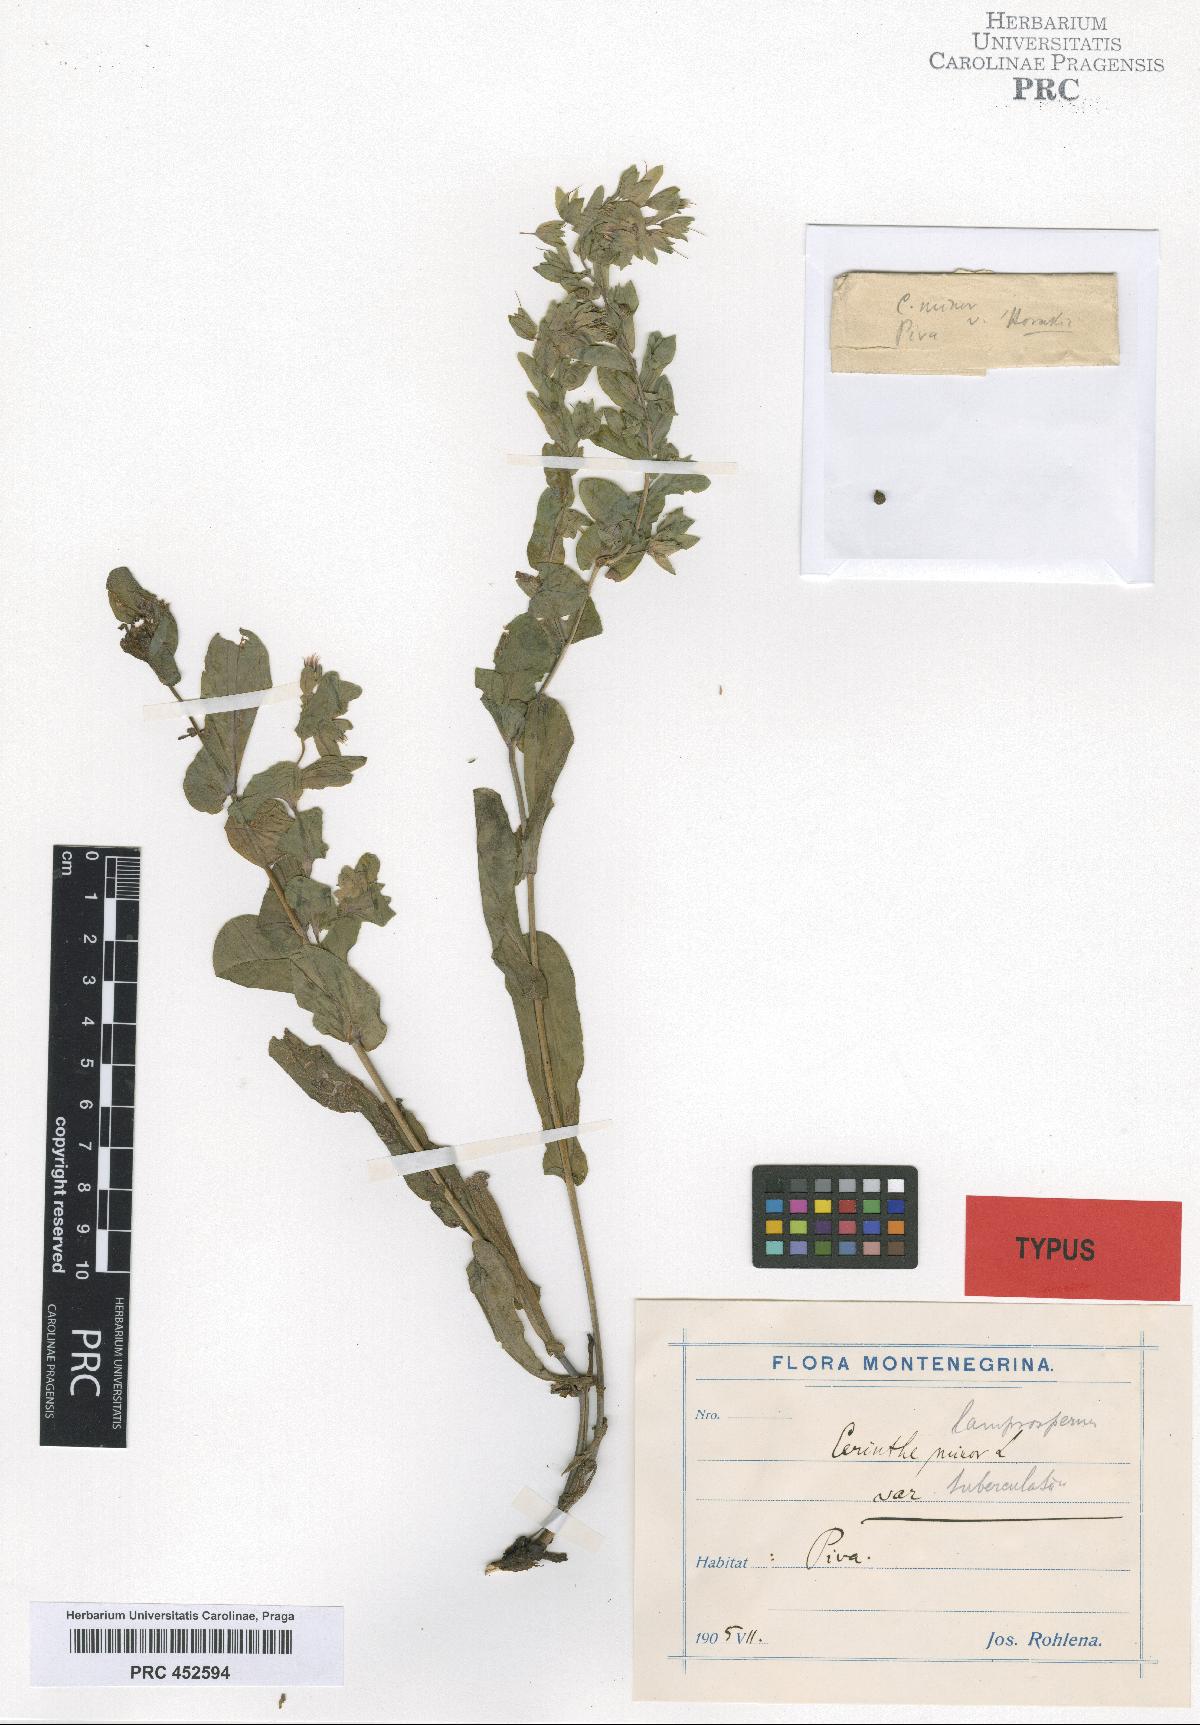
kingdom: Plantae
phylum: Tracheophyta
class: Magnoliopsida
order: Boraginales
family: Boraginaceae
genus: Cerinthe
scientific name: Cerinthe minor
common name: Lesser honeywort
